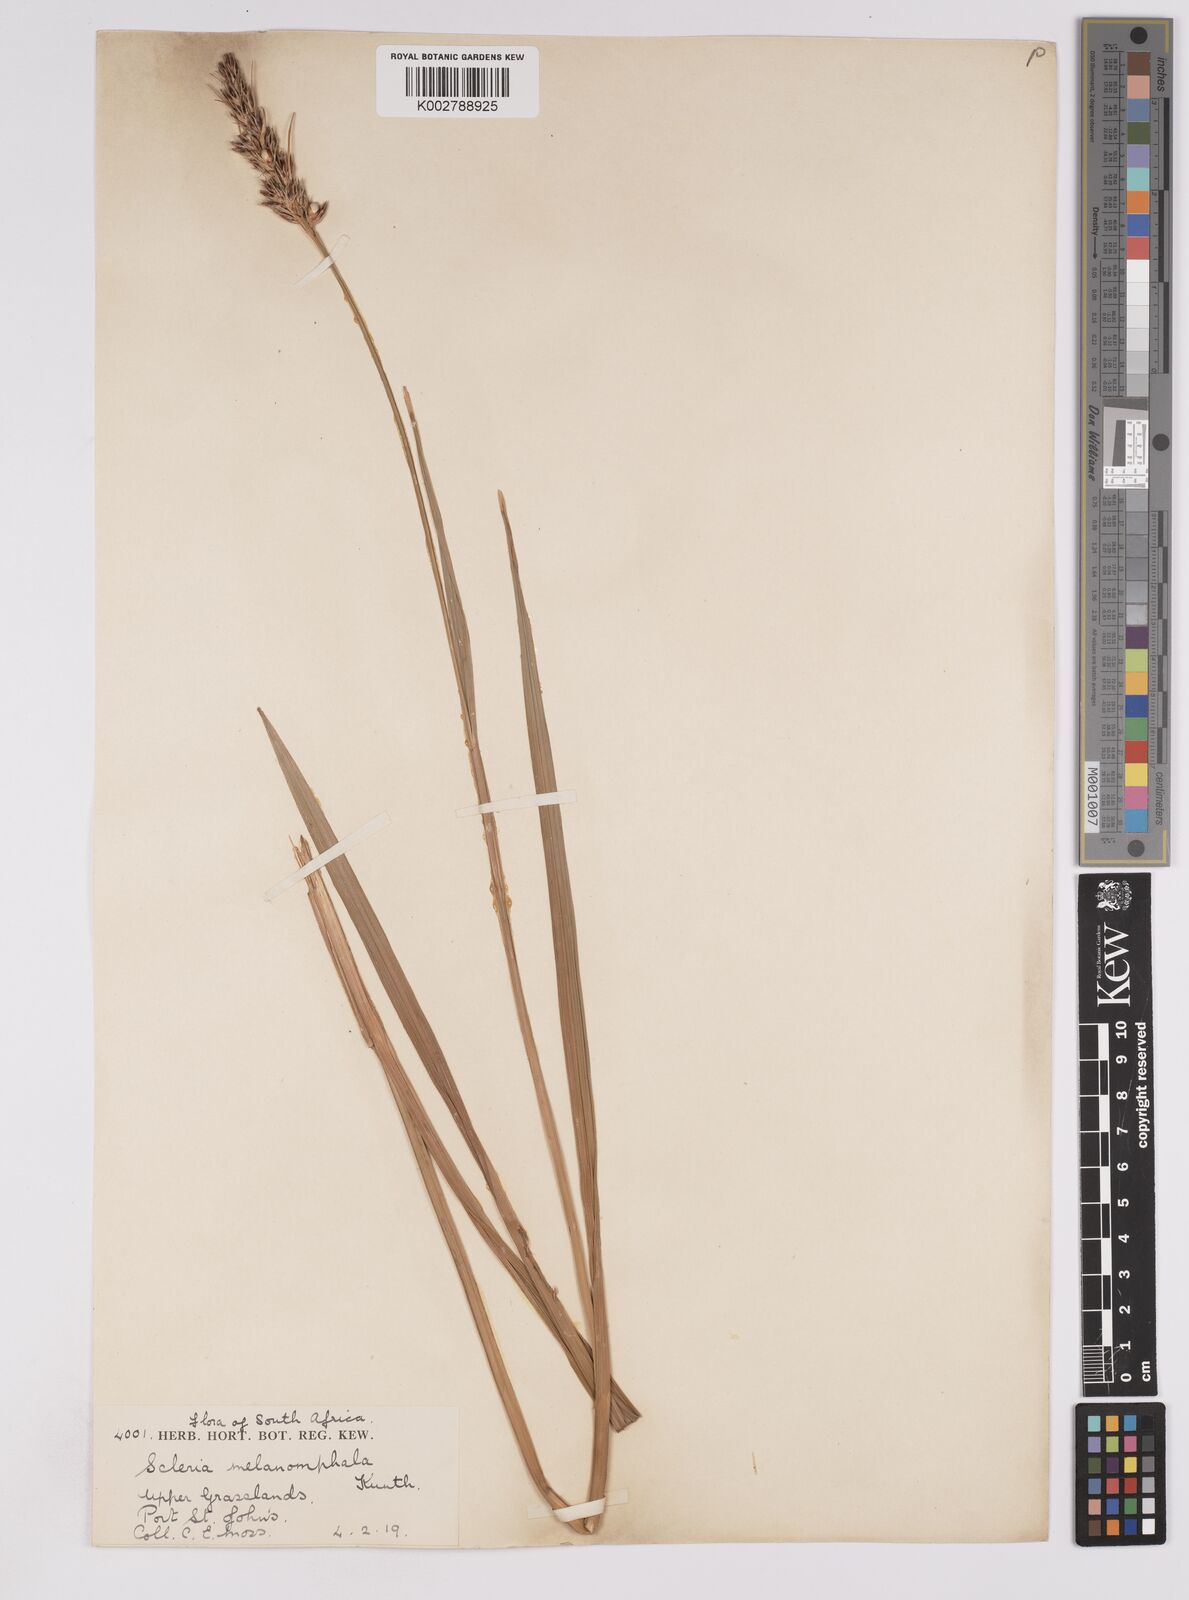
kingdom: Plantae
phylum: Tracheophyta
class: Liliopsida
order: Poales
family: Cyperaceae
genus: Scleria
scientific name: Scleria melanomphala
